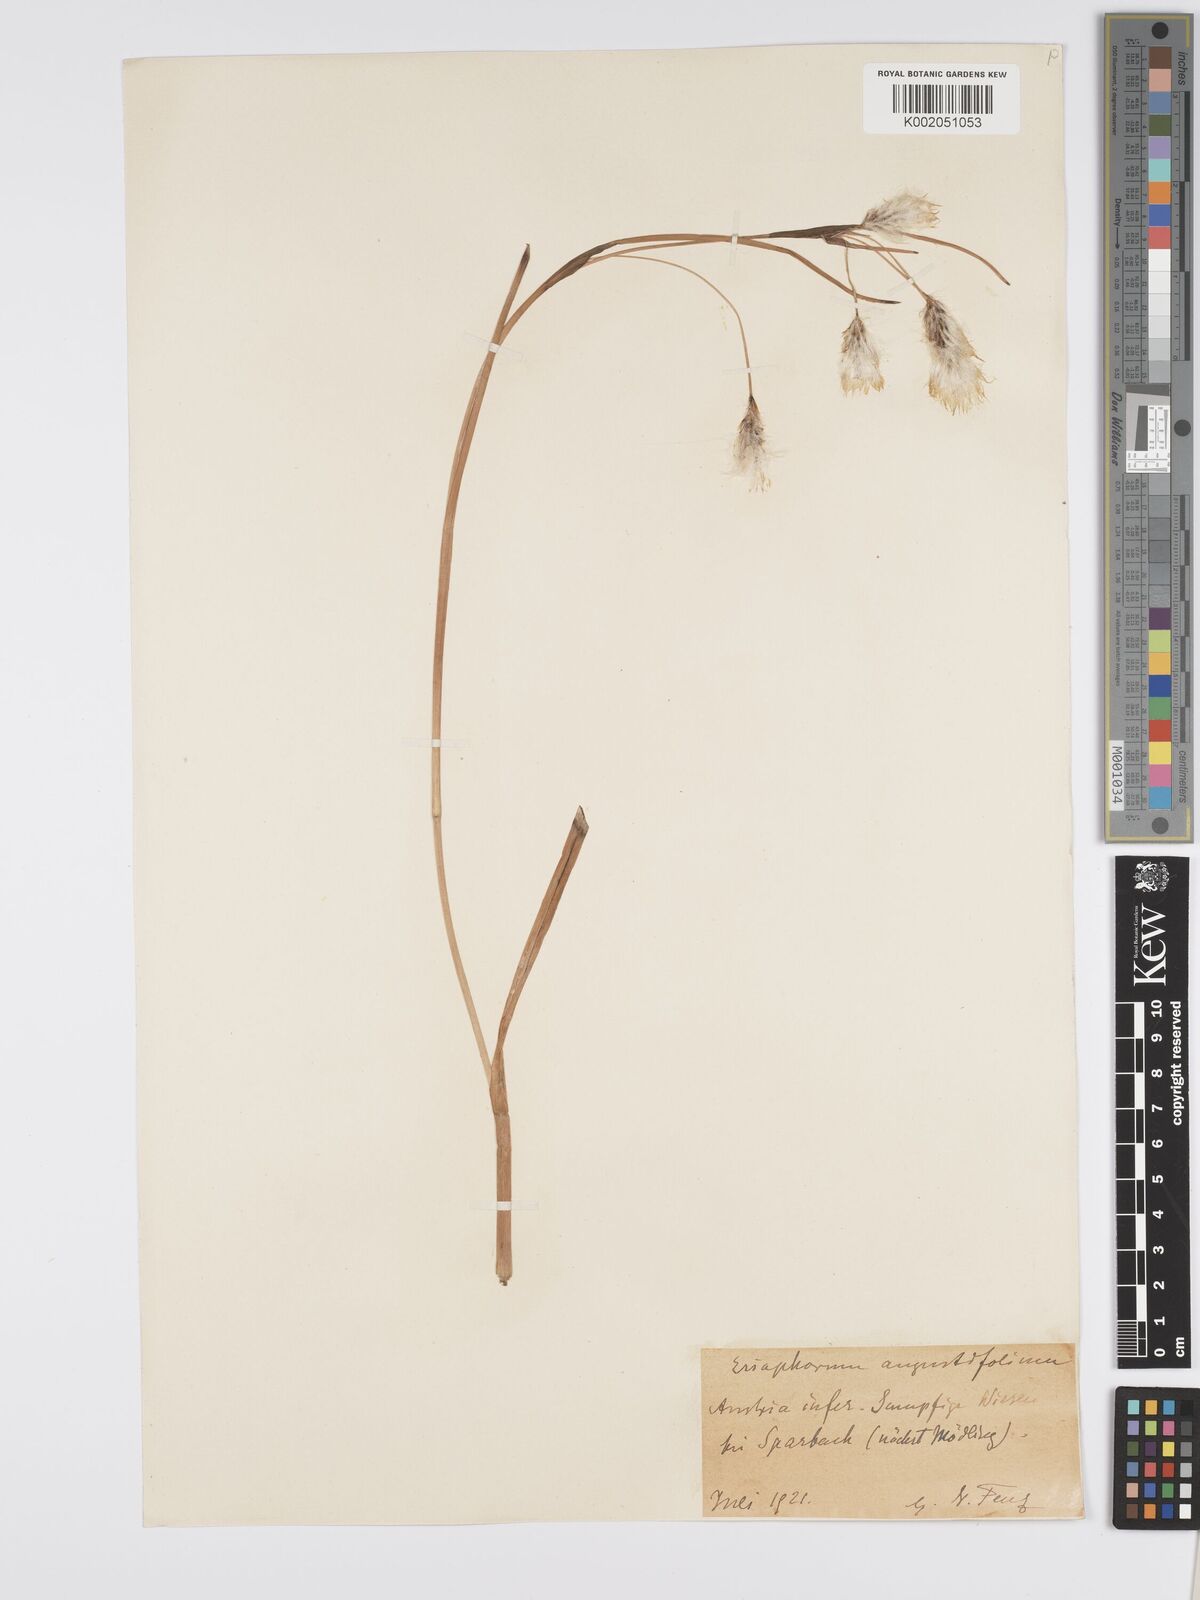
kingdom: Plantae
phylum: Tracheophyta
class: Liliopsida
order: Poales
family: Cyperaceae
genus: Eriophorum
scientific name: Eriophorum angustifolium
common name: Common cottongrass
